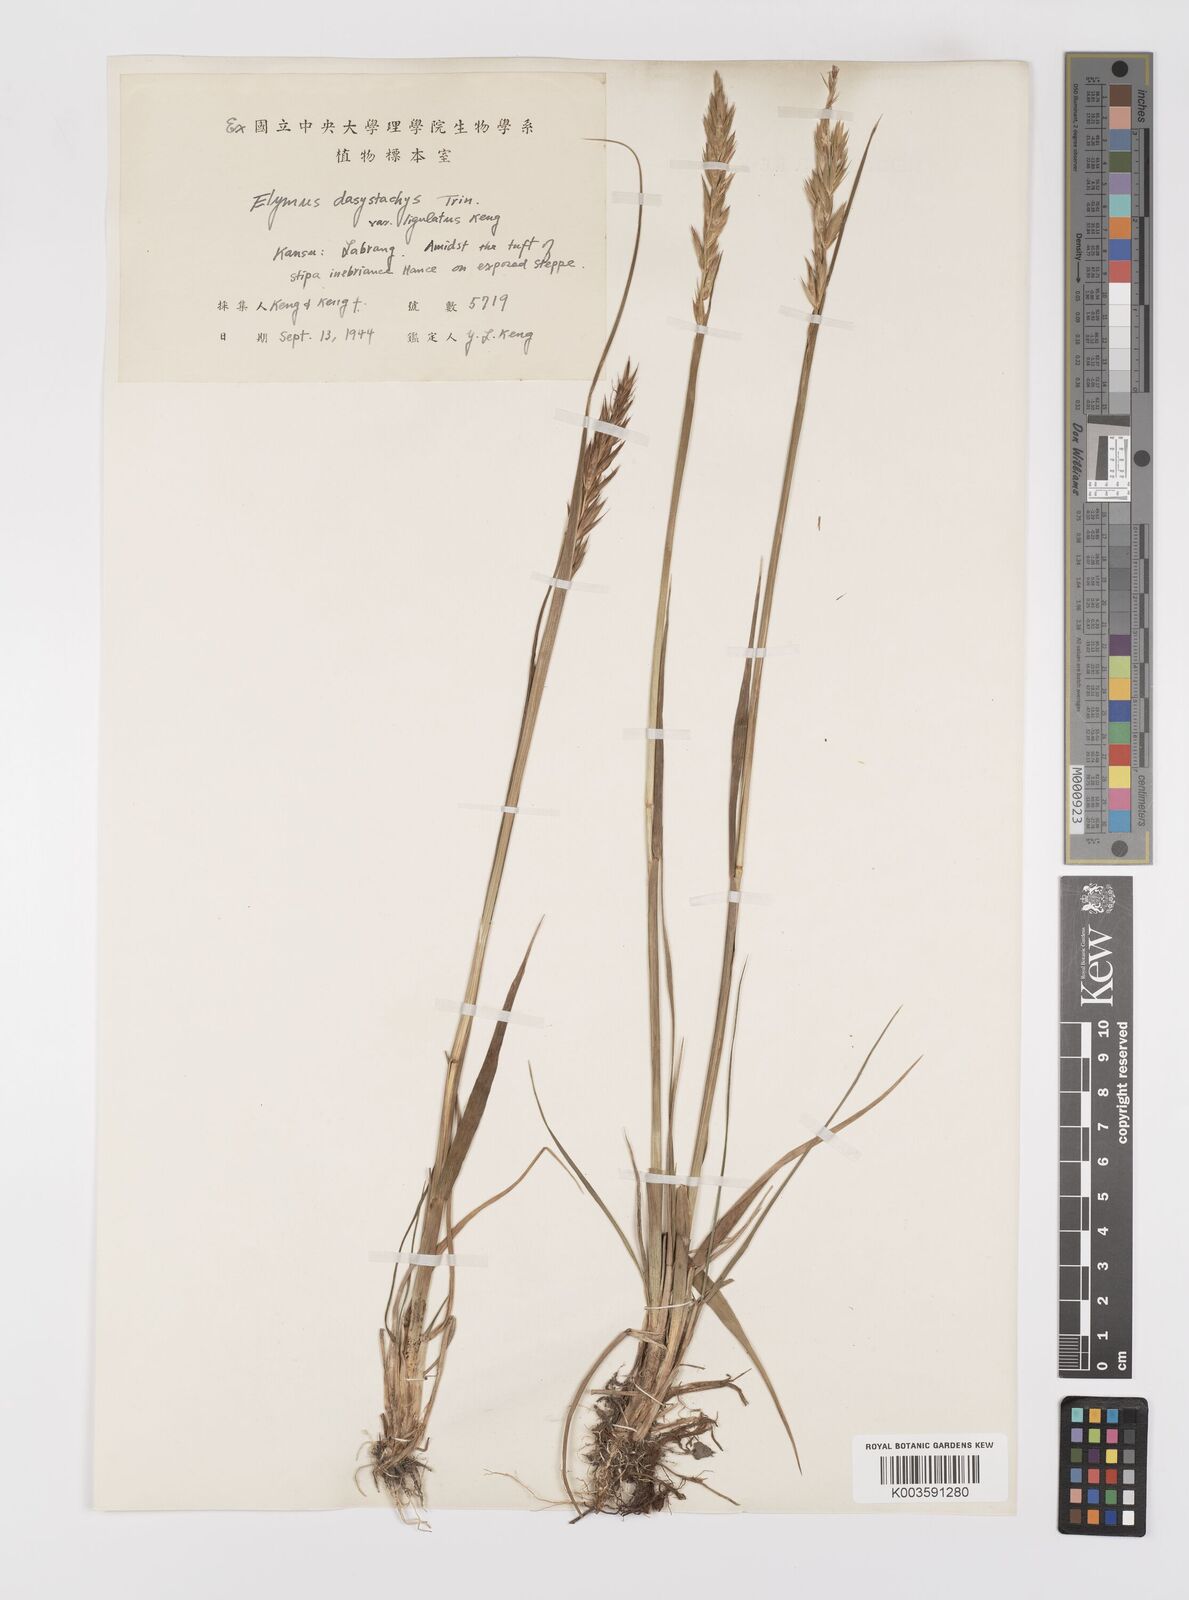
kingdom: Plantae
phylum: Tracheophyta
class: Liliopsida
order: Poales
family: Poaceae
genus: Leymus
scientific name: Leymus secalinus
